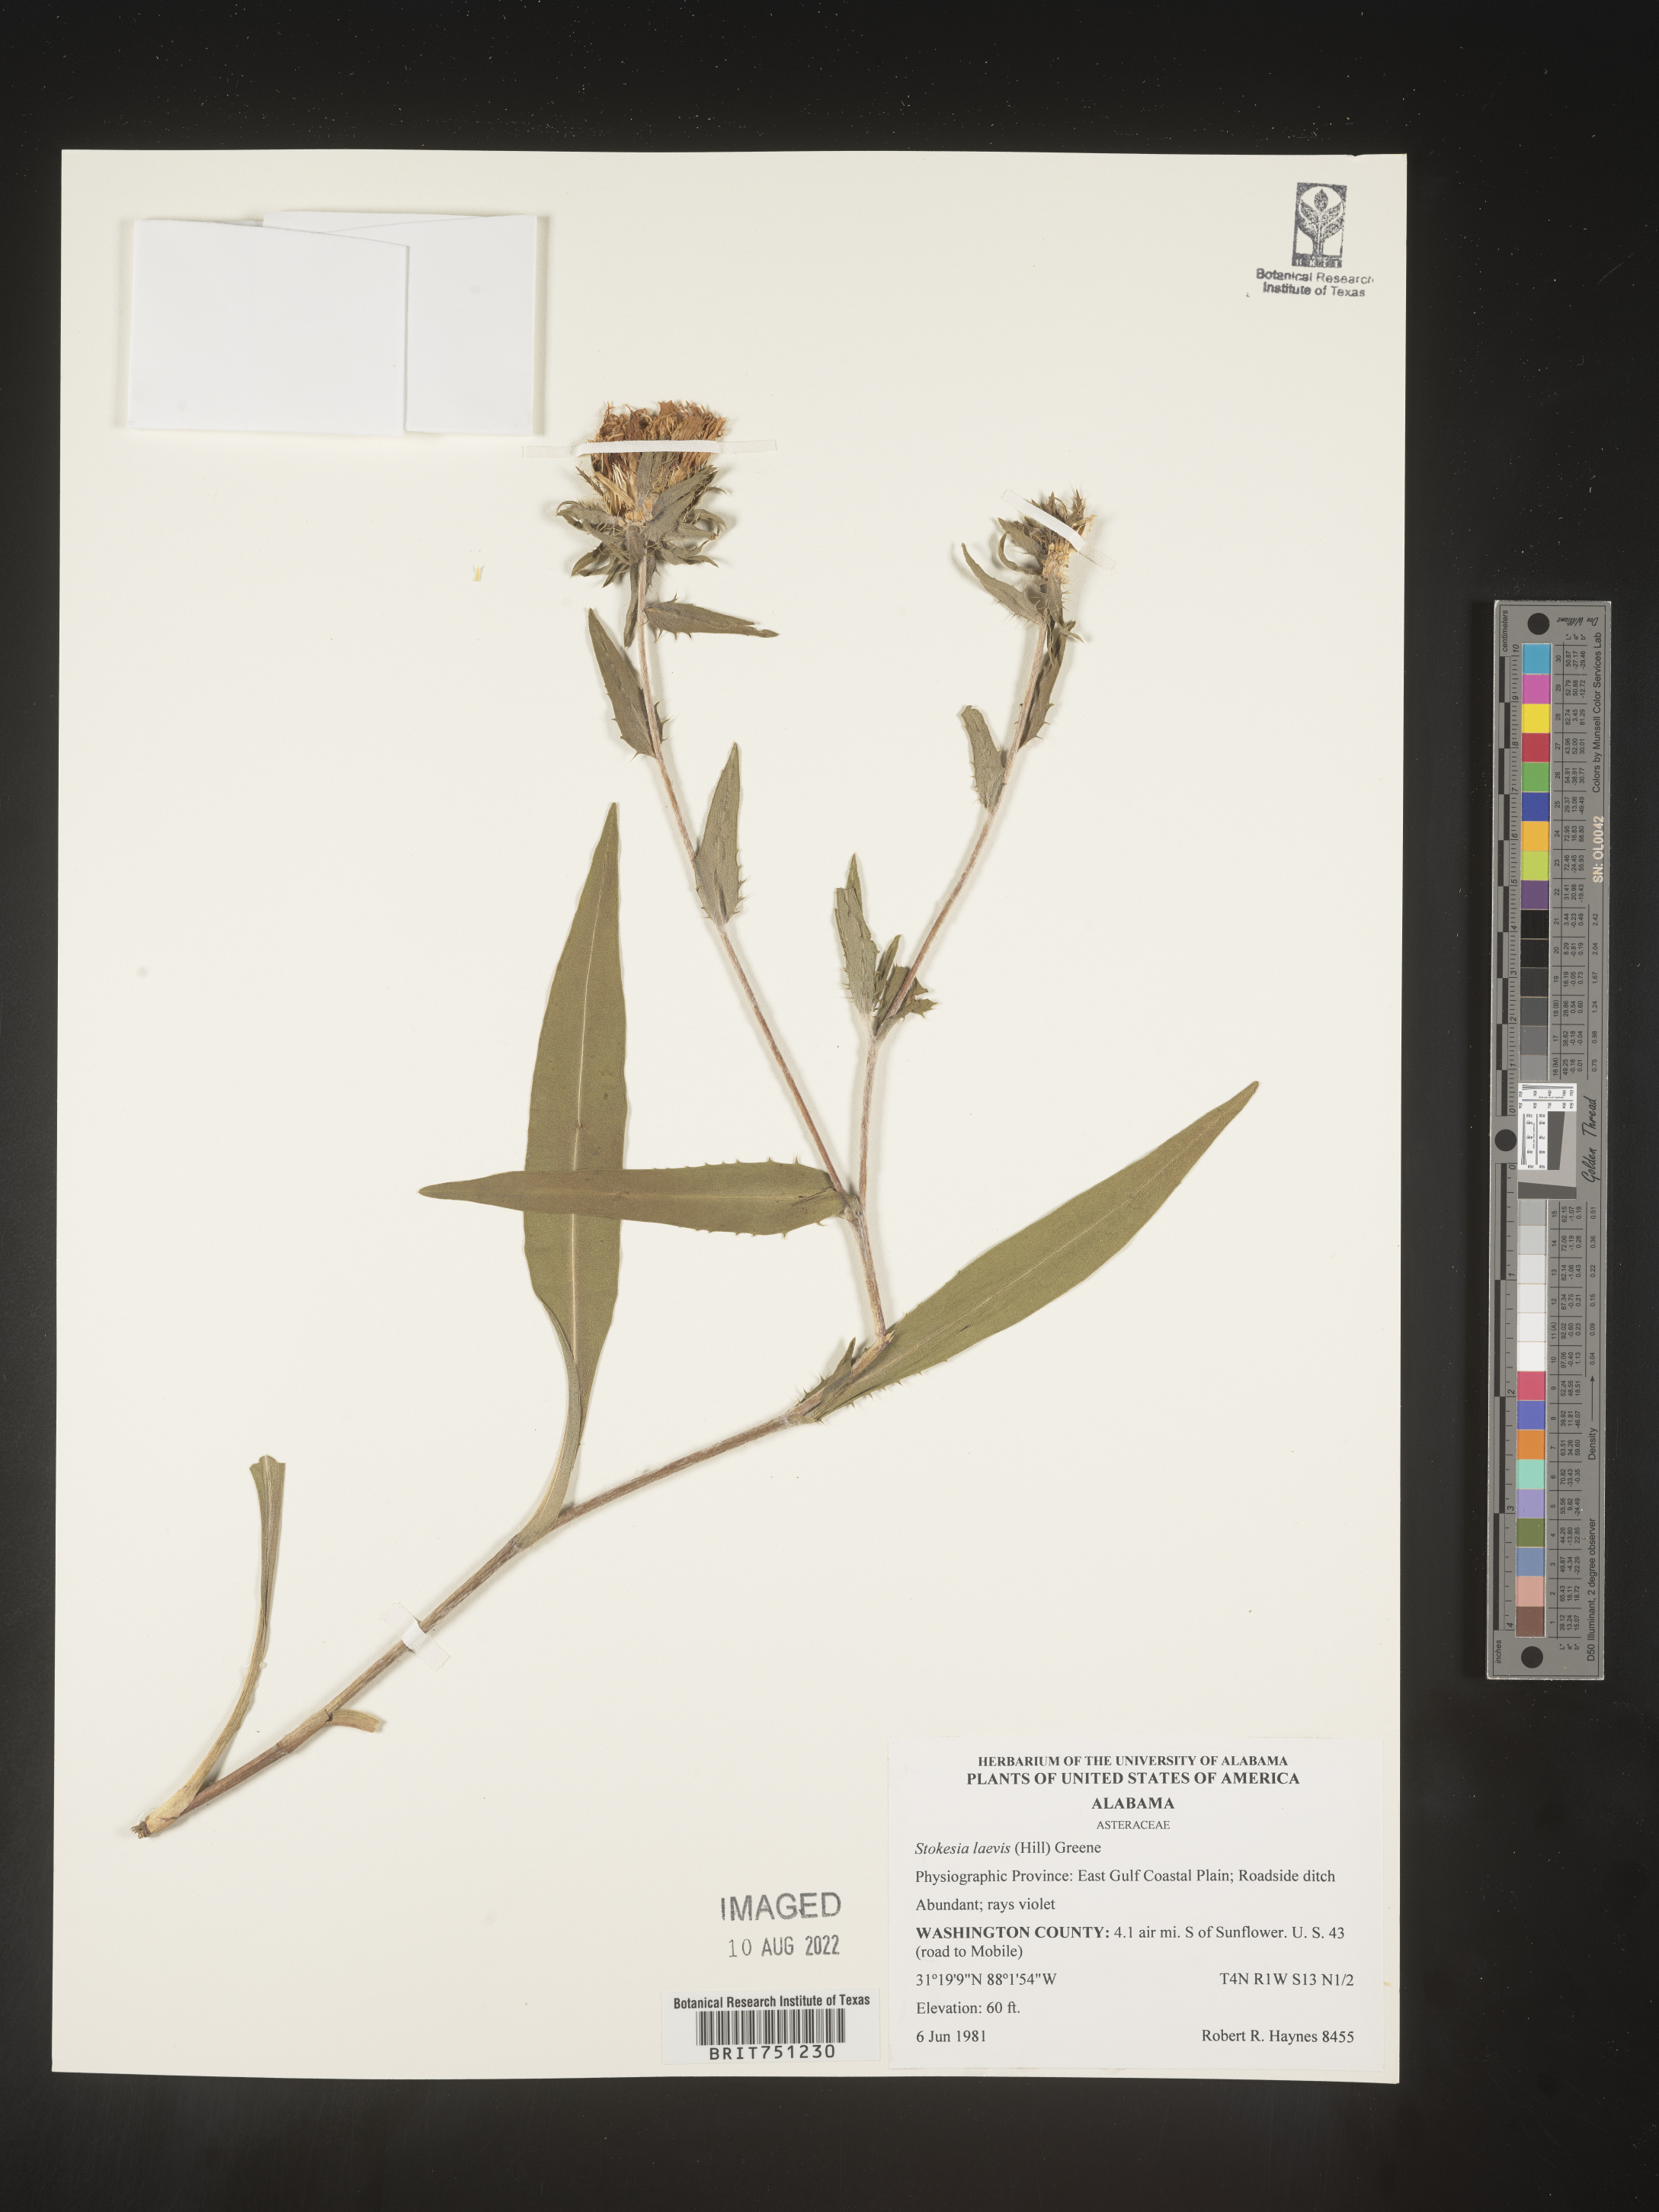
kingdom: Plantae
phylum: Tracheophyta
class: Magnoliopsida
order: Asterales
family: Asteraceae
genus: Stokesia
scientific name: Stokesia
